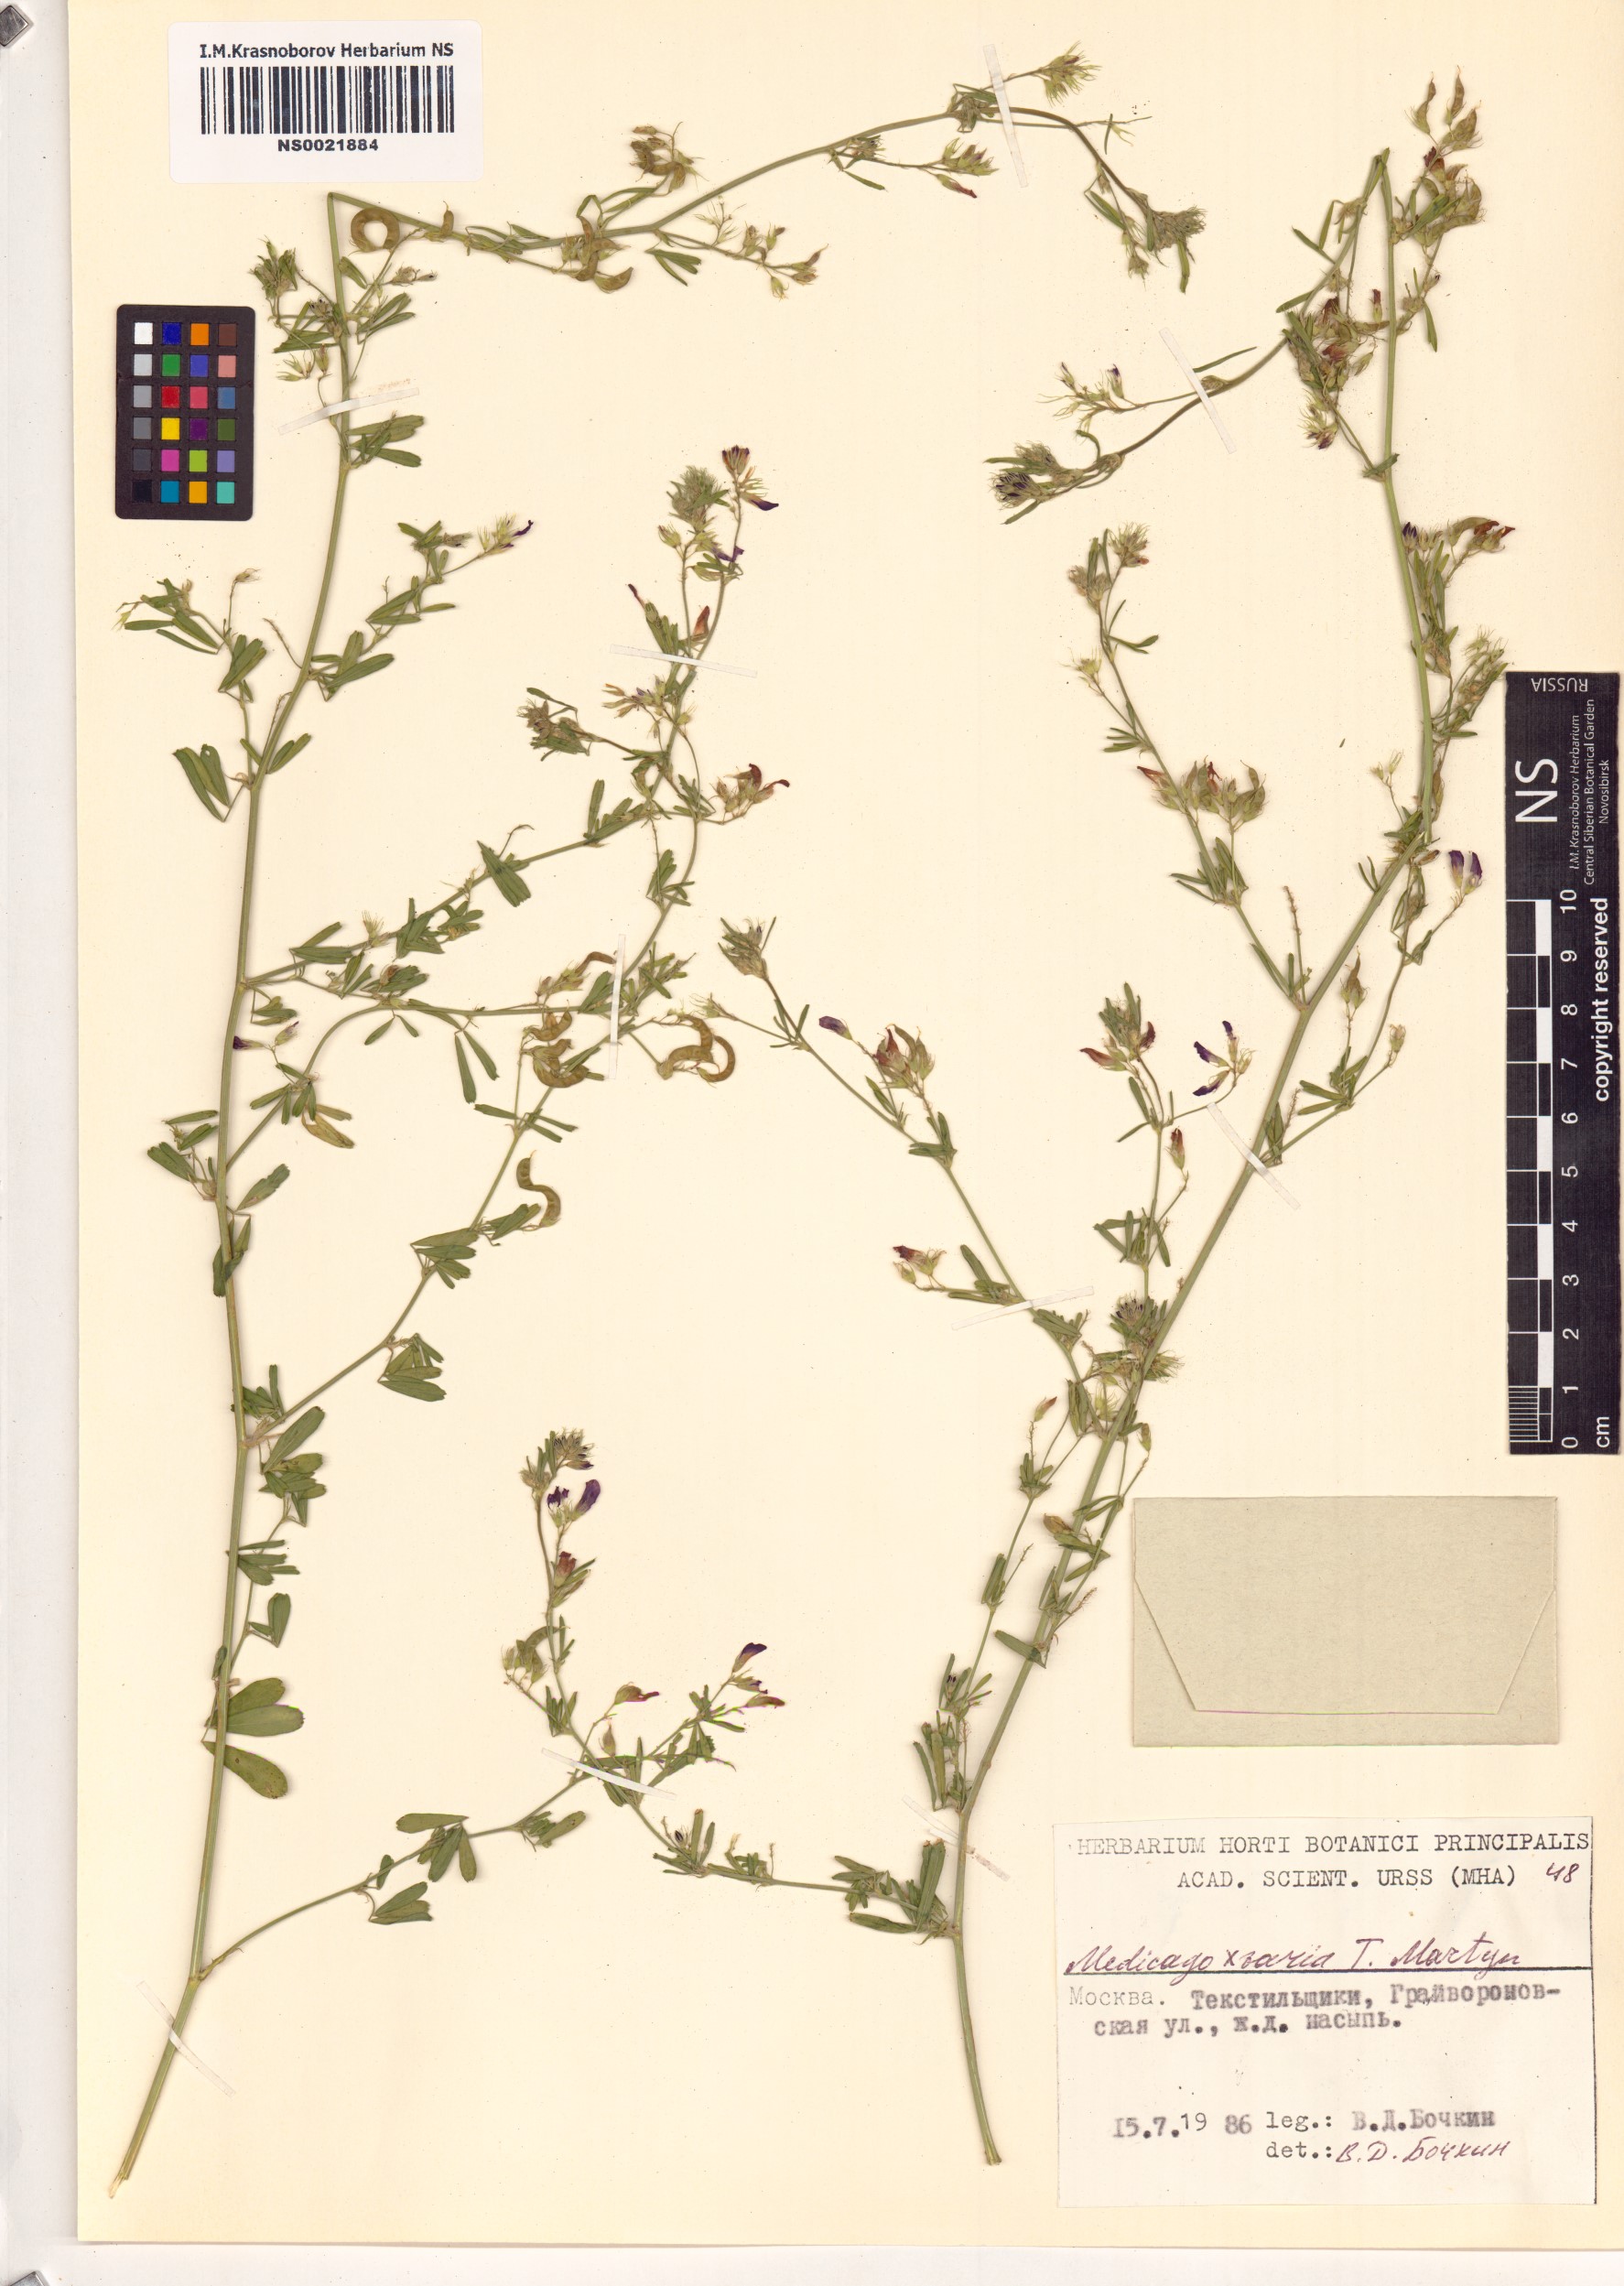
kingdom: Plantae
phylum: Tracheophyta
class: Magnoliopsida
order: Fabales
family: Fabaceae
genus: Medicago
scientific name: Medicago varia
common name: Sand lucerne
